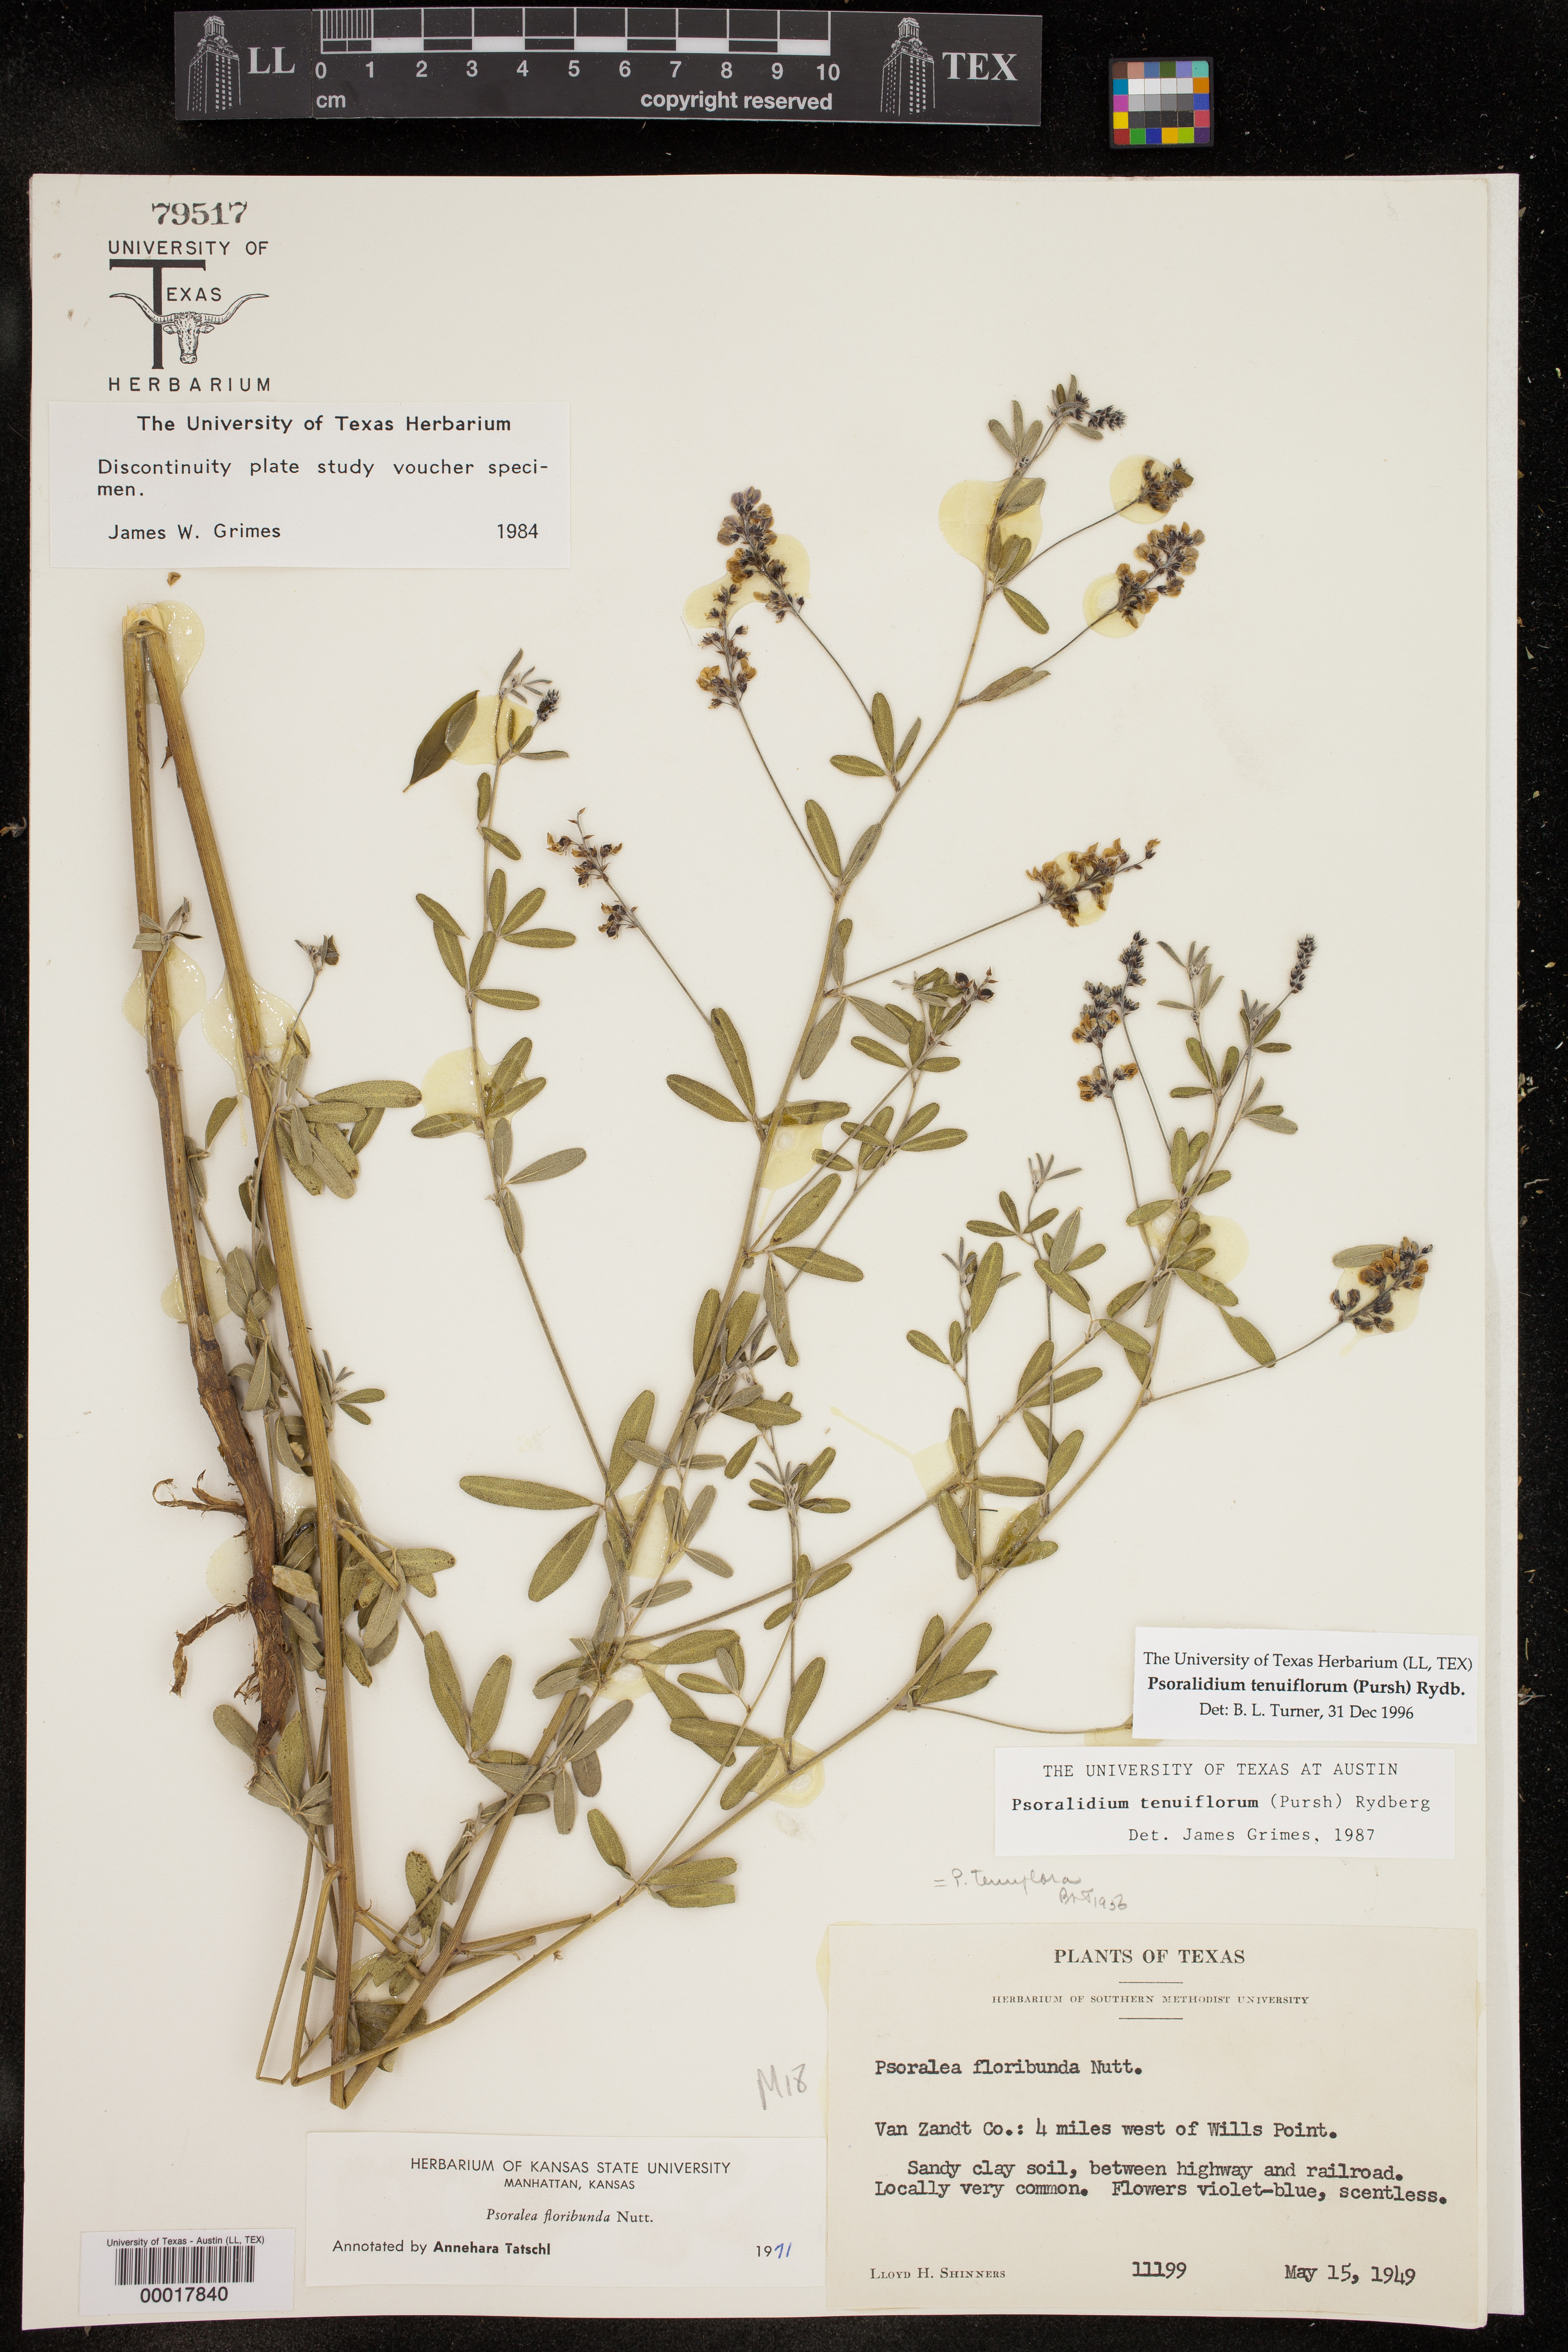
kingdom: Plantae
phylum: Tracheophyta
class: Magnoliopsida
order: Fabales
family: Fabaceae
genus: Pediomelum
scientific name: Pediomelum tenuiflorum
